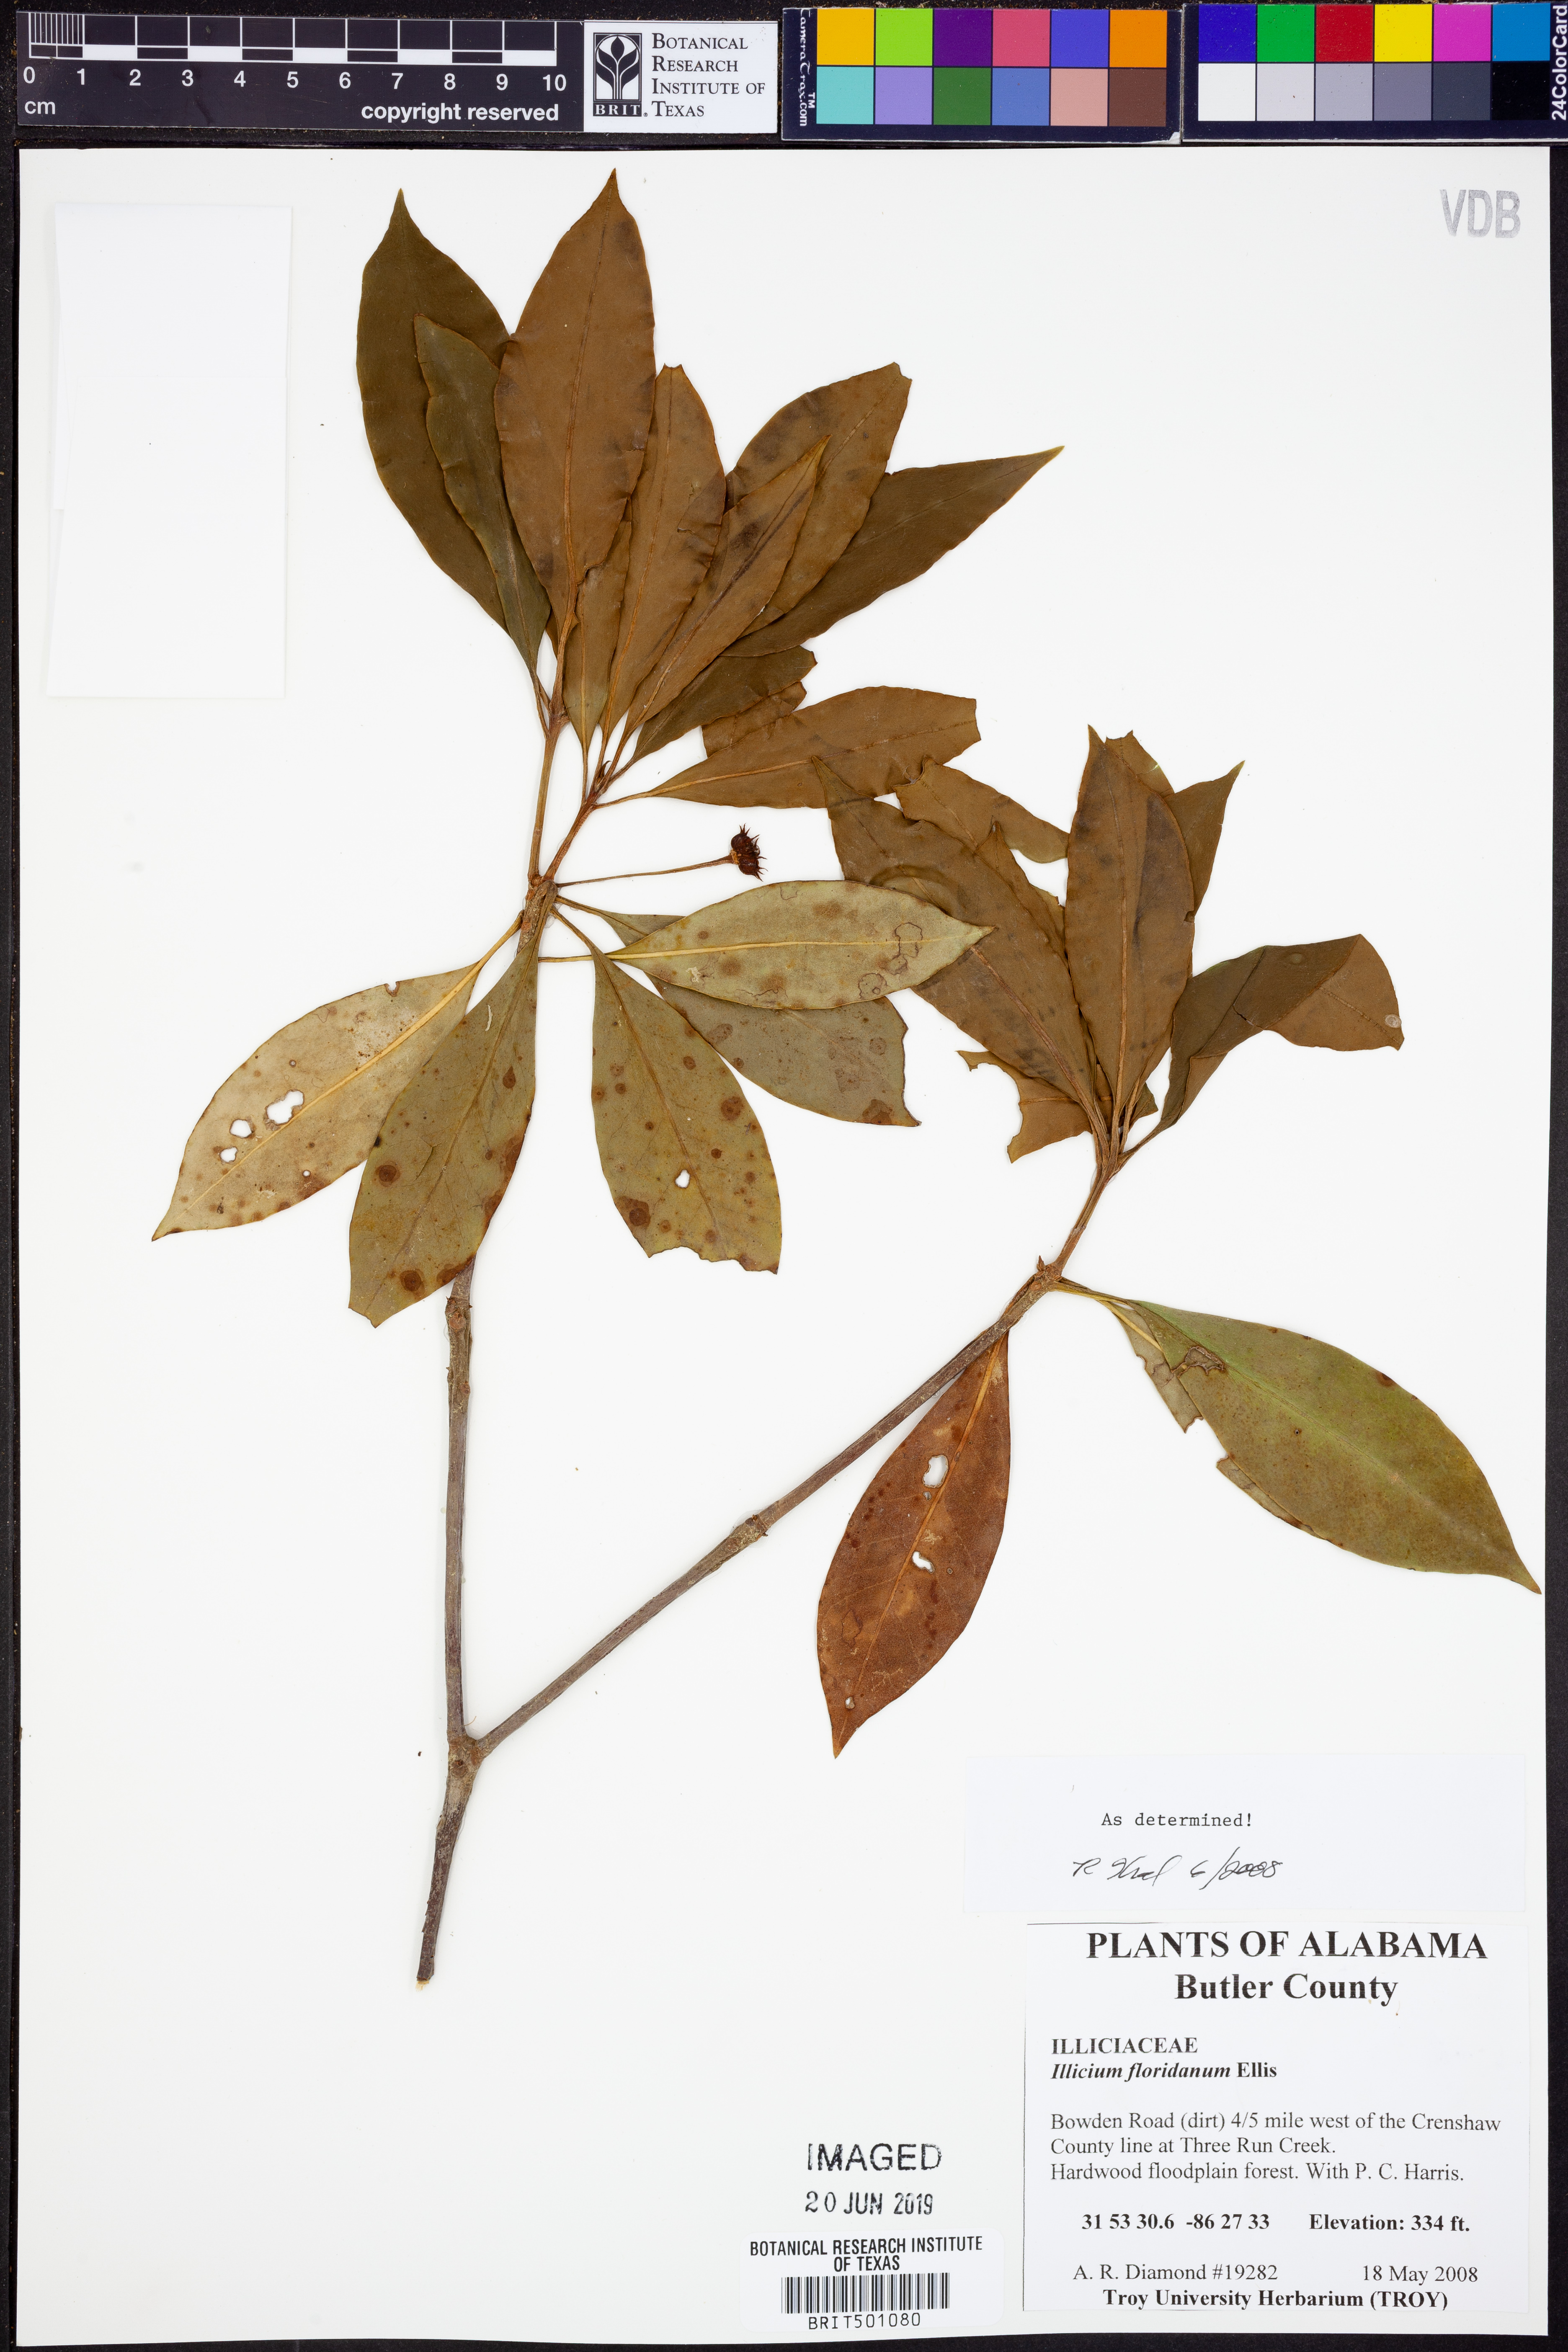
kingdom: Plantae
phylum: Tracheophyta
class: Magnoliopsida
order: Austrobaileyales
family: Schisandraceae
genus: Illicium
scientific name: Illicium floridanum
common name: Florida anisetree
